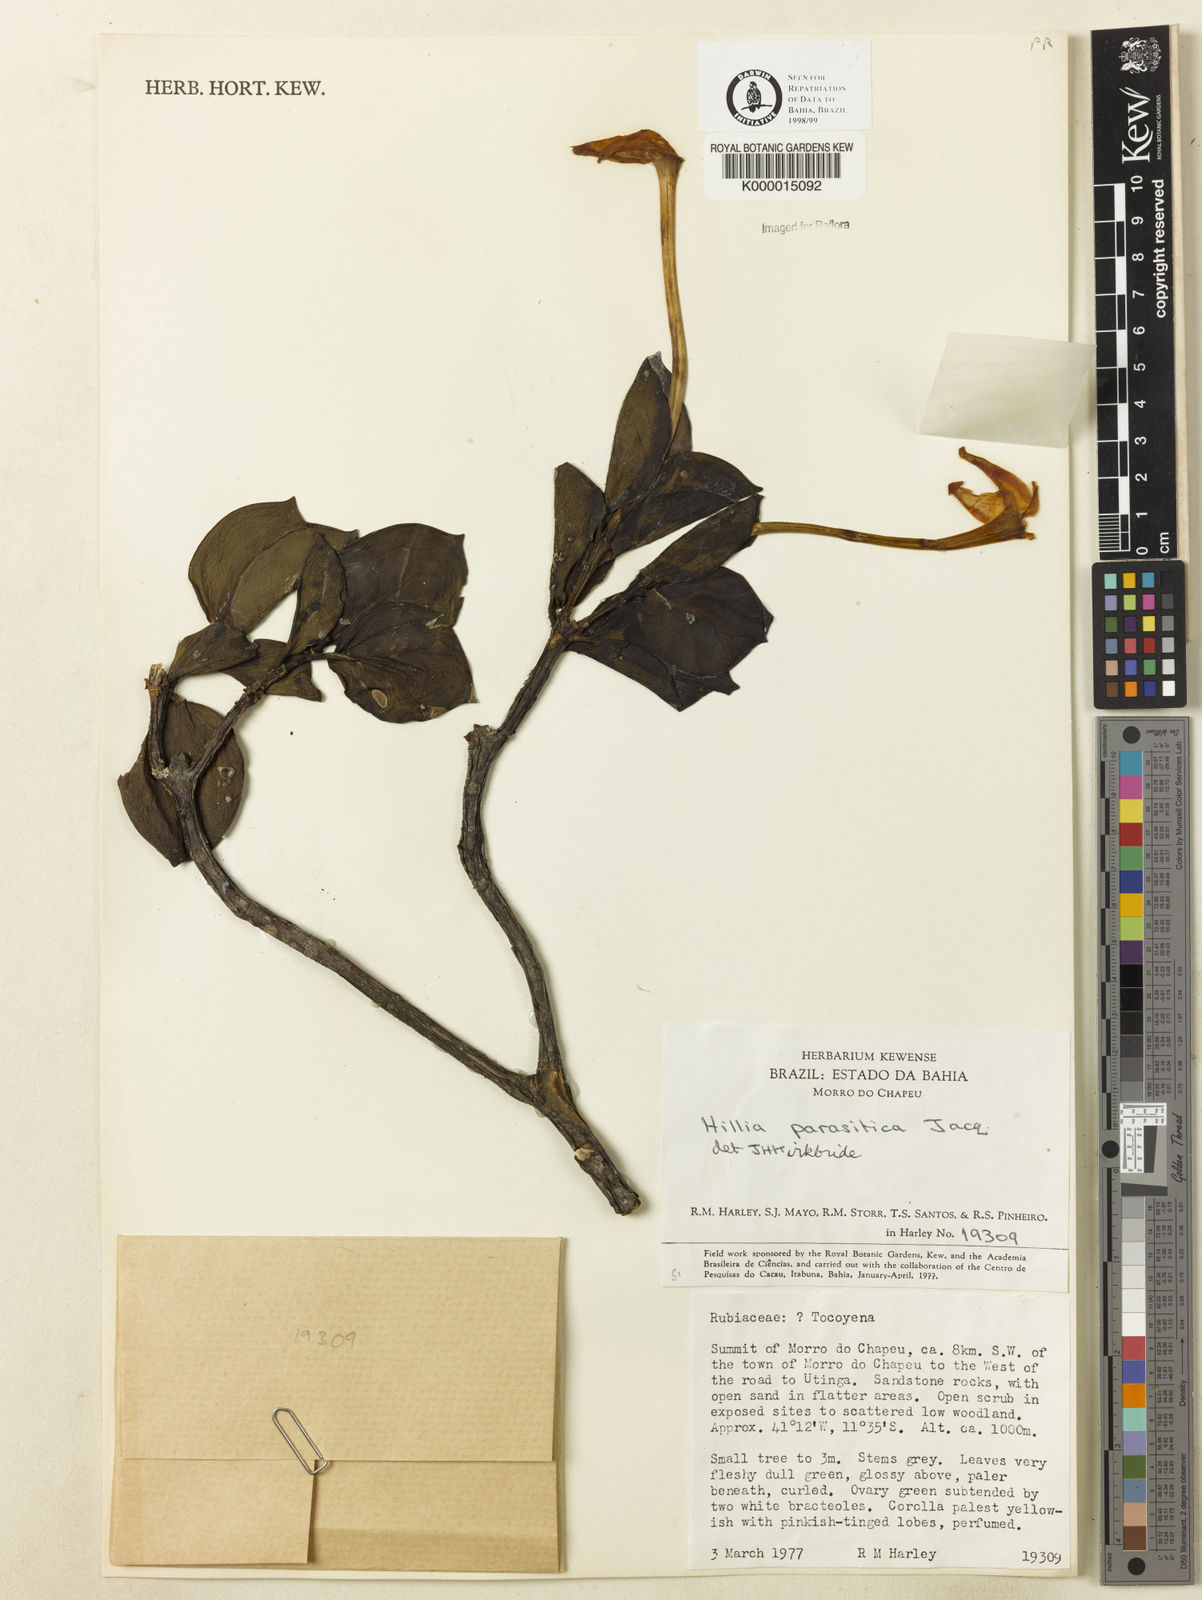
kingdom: Plantae
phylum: Tracheophyta
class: Magnoliopsida
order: Gentianales
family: Rubiaceae
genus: Hillia
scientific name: Hillia parasitica
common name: Morning star
